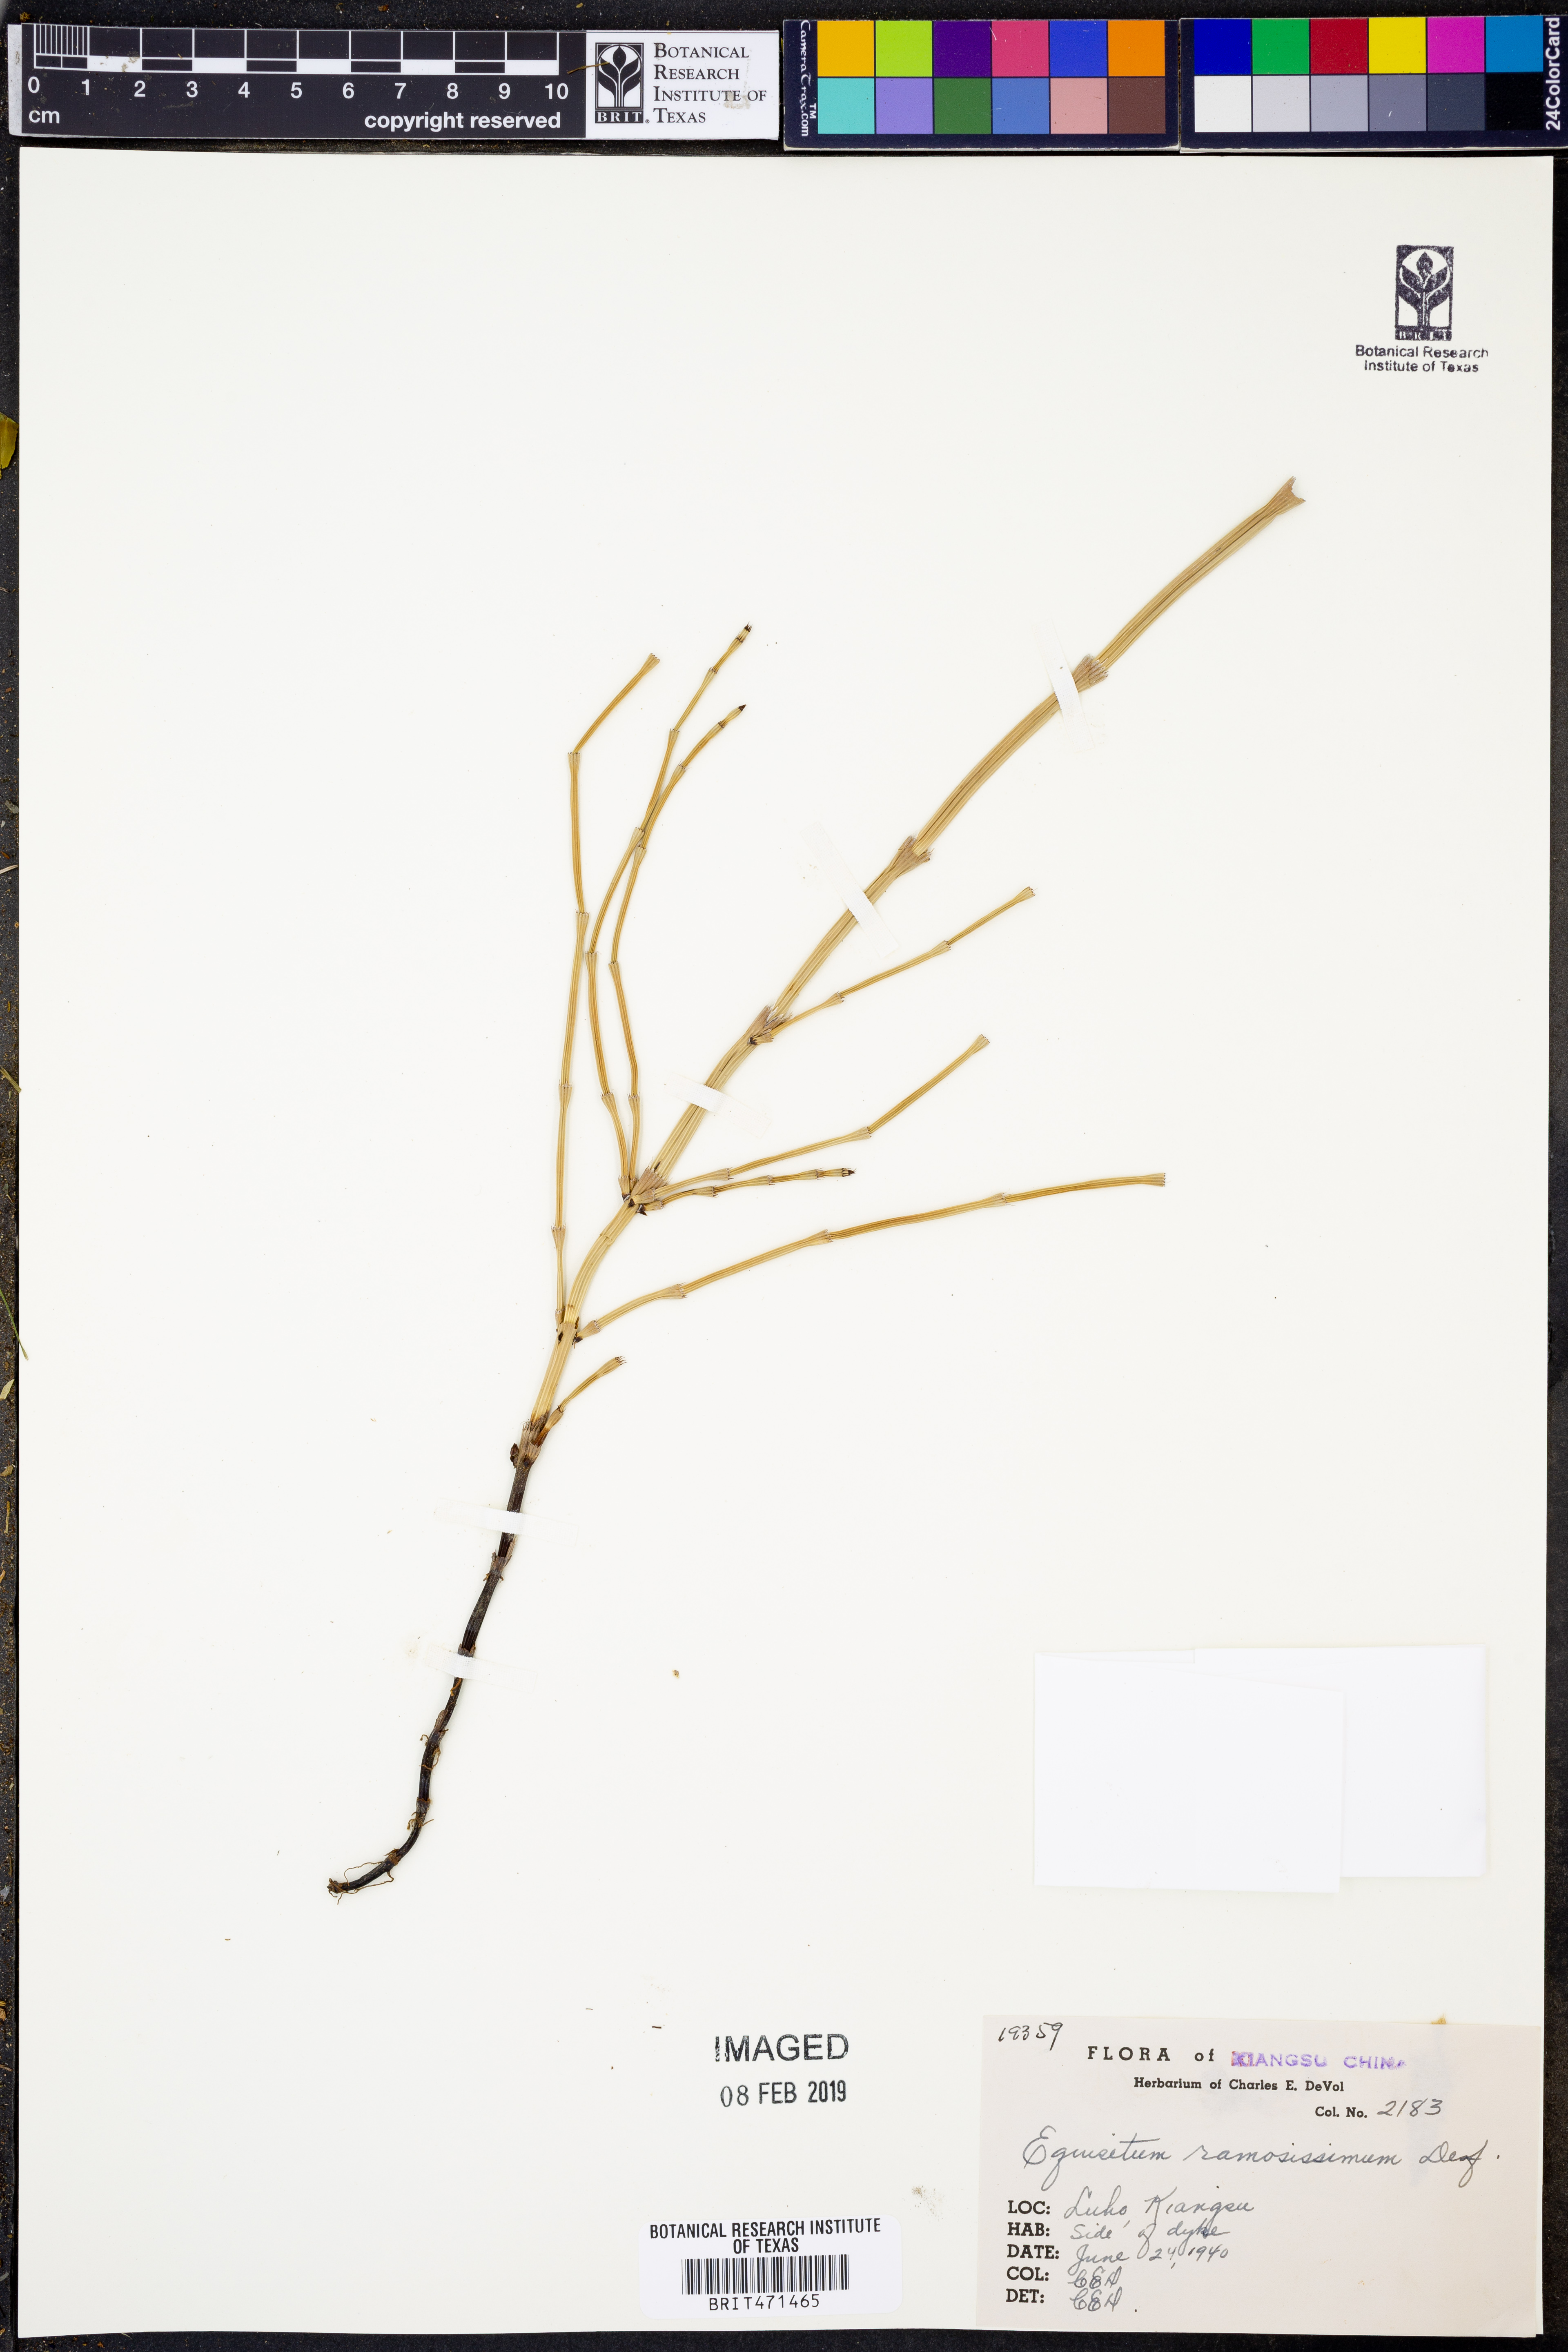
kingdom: Plantae
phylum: Tracheophyta
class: Polypodiopsida
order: Equisetales
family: Equisetaceae
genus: Equisetum
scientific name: Equisetum ramosissimum
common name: Branched horsetail
